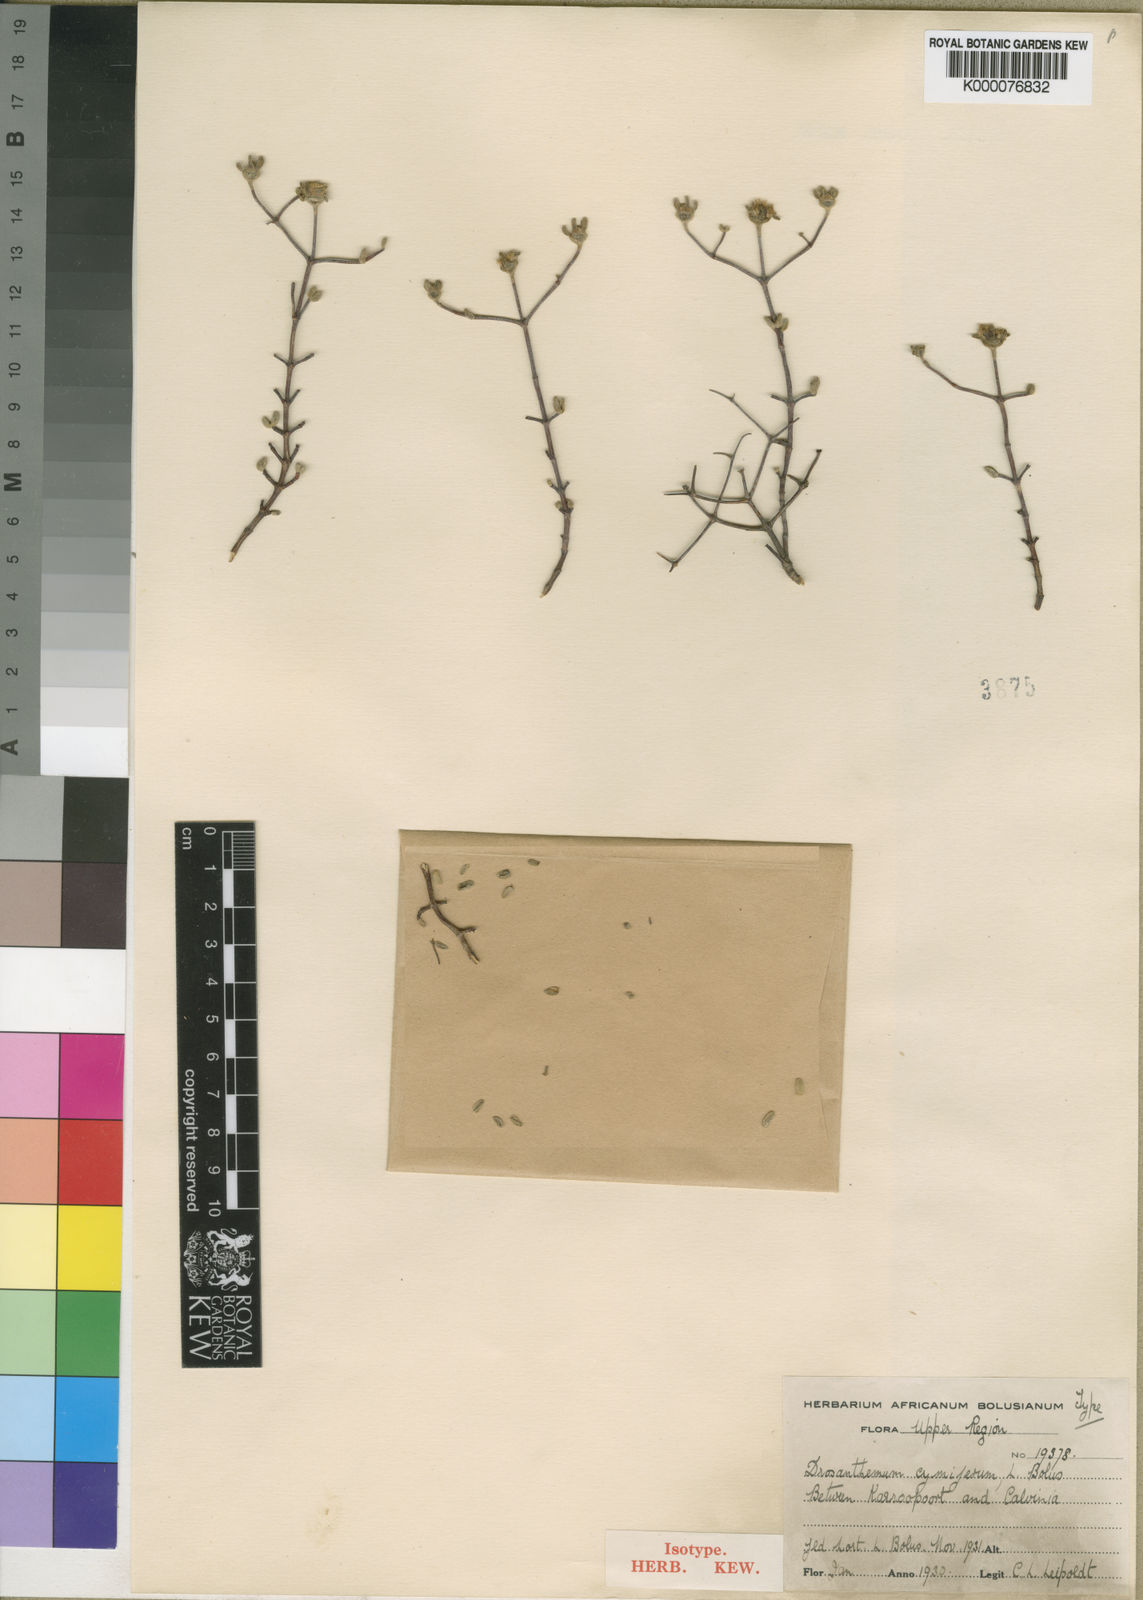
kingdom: Plantae
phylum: Tracheophyta
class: Magnoliopsida
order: Caryophyllales
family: Aizoaceae
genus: Drosanthemum
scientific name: Drosanthemum cymiferum
